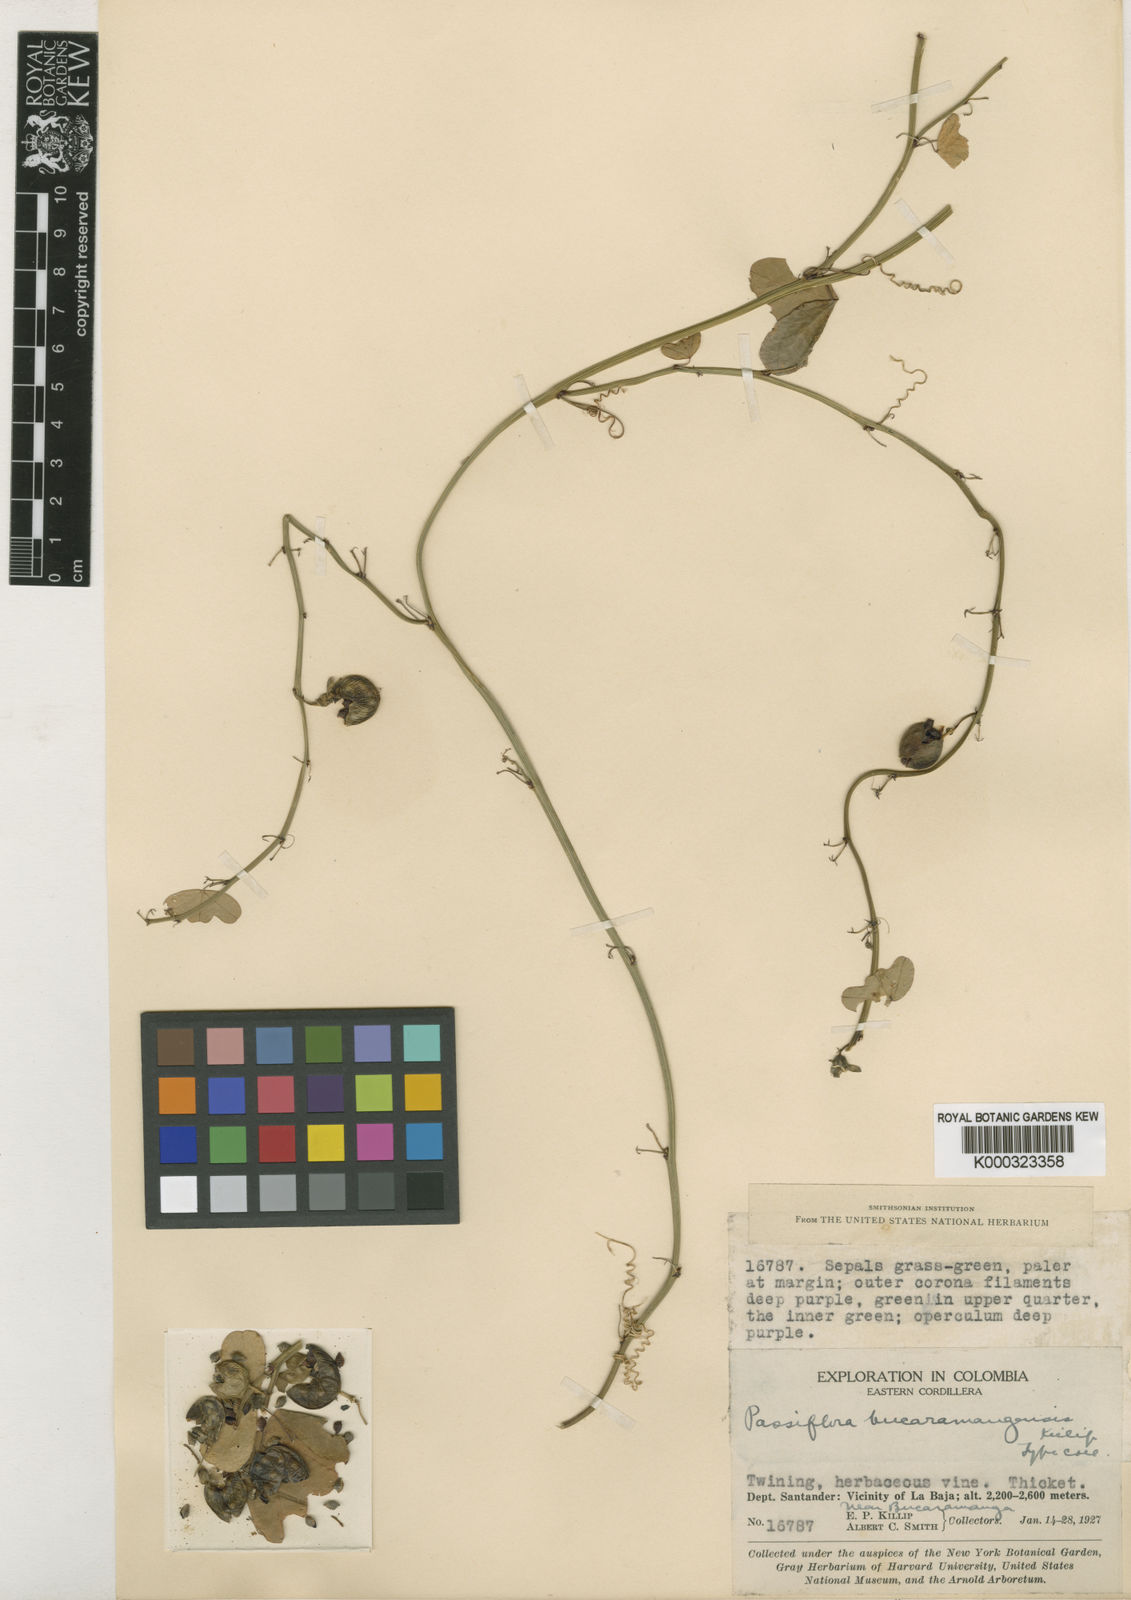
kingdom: Plantae
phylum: Tracheophyta
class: Magnoliopsida
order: Malpighiales
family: Passifloraceae
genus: Passiflora
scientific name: Passiflora bucaramangensis
